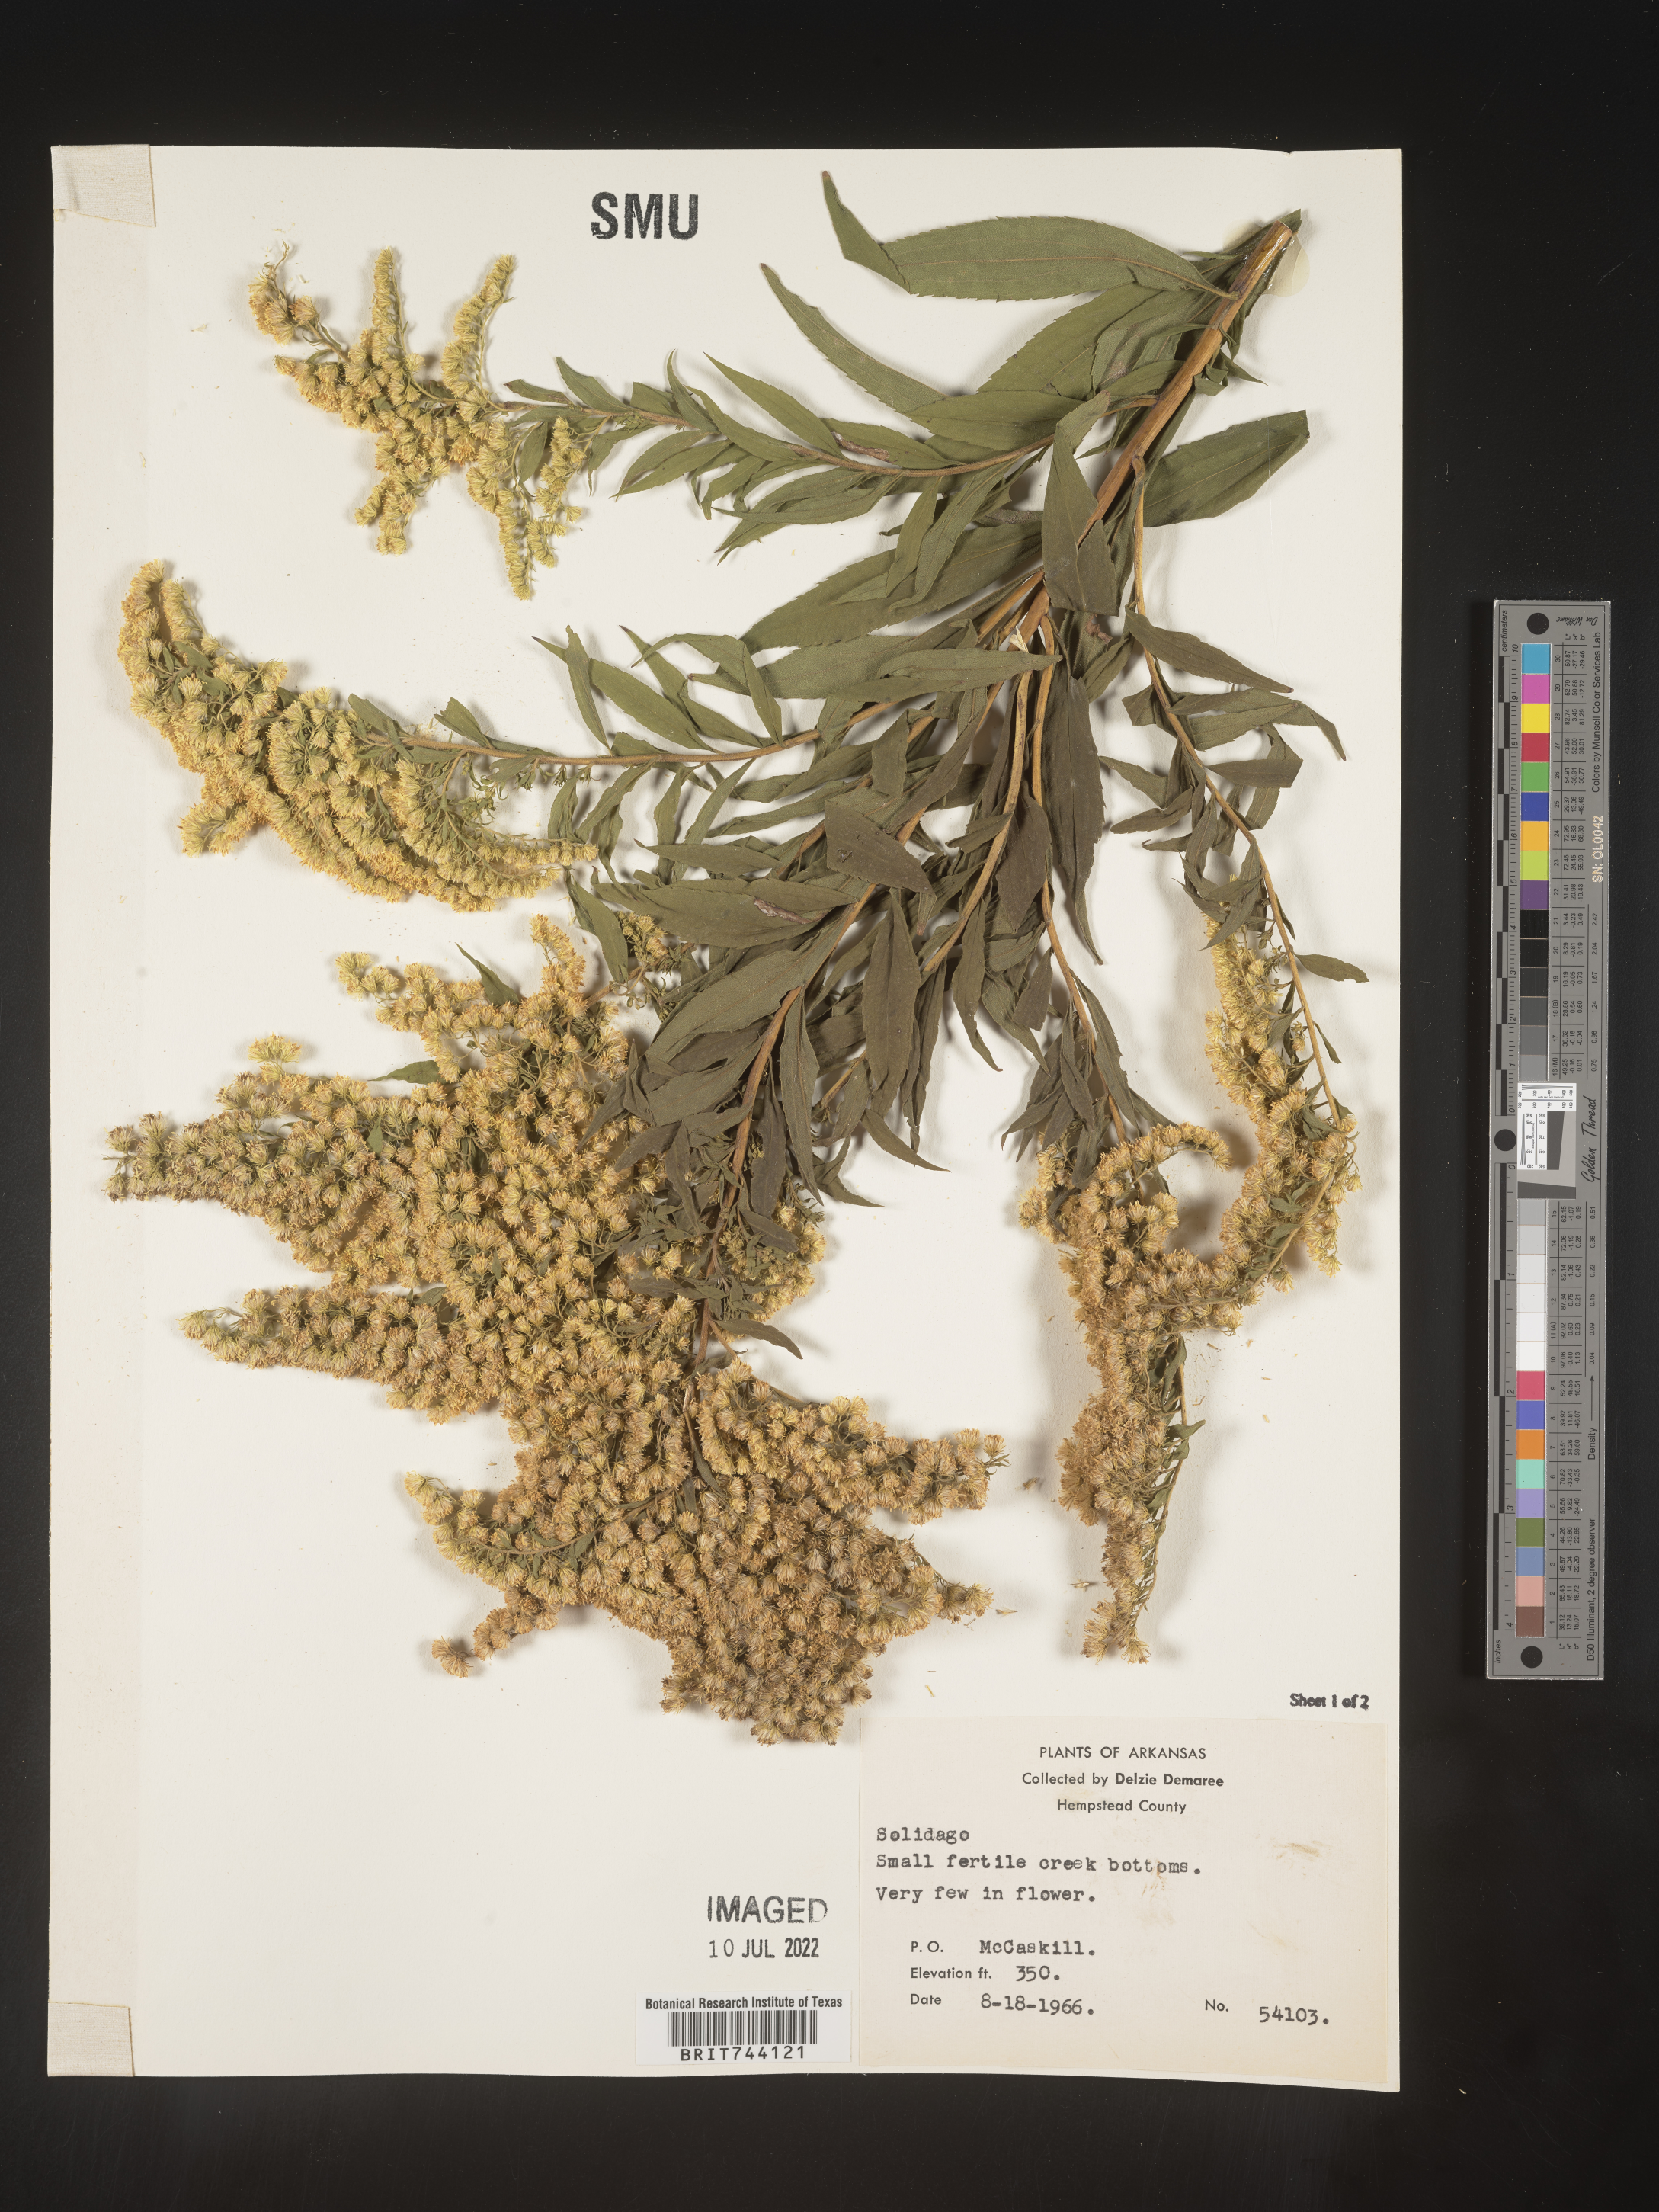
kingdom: Plantae
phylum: Tracheophyta
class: Magnoliopsida
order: Asterales
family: Asteraceae
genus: Solidago
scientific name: Solidago altissima
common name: Late goldenrod
